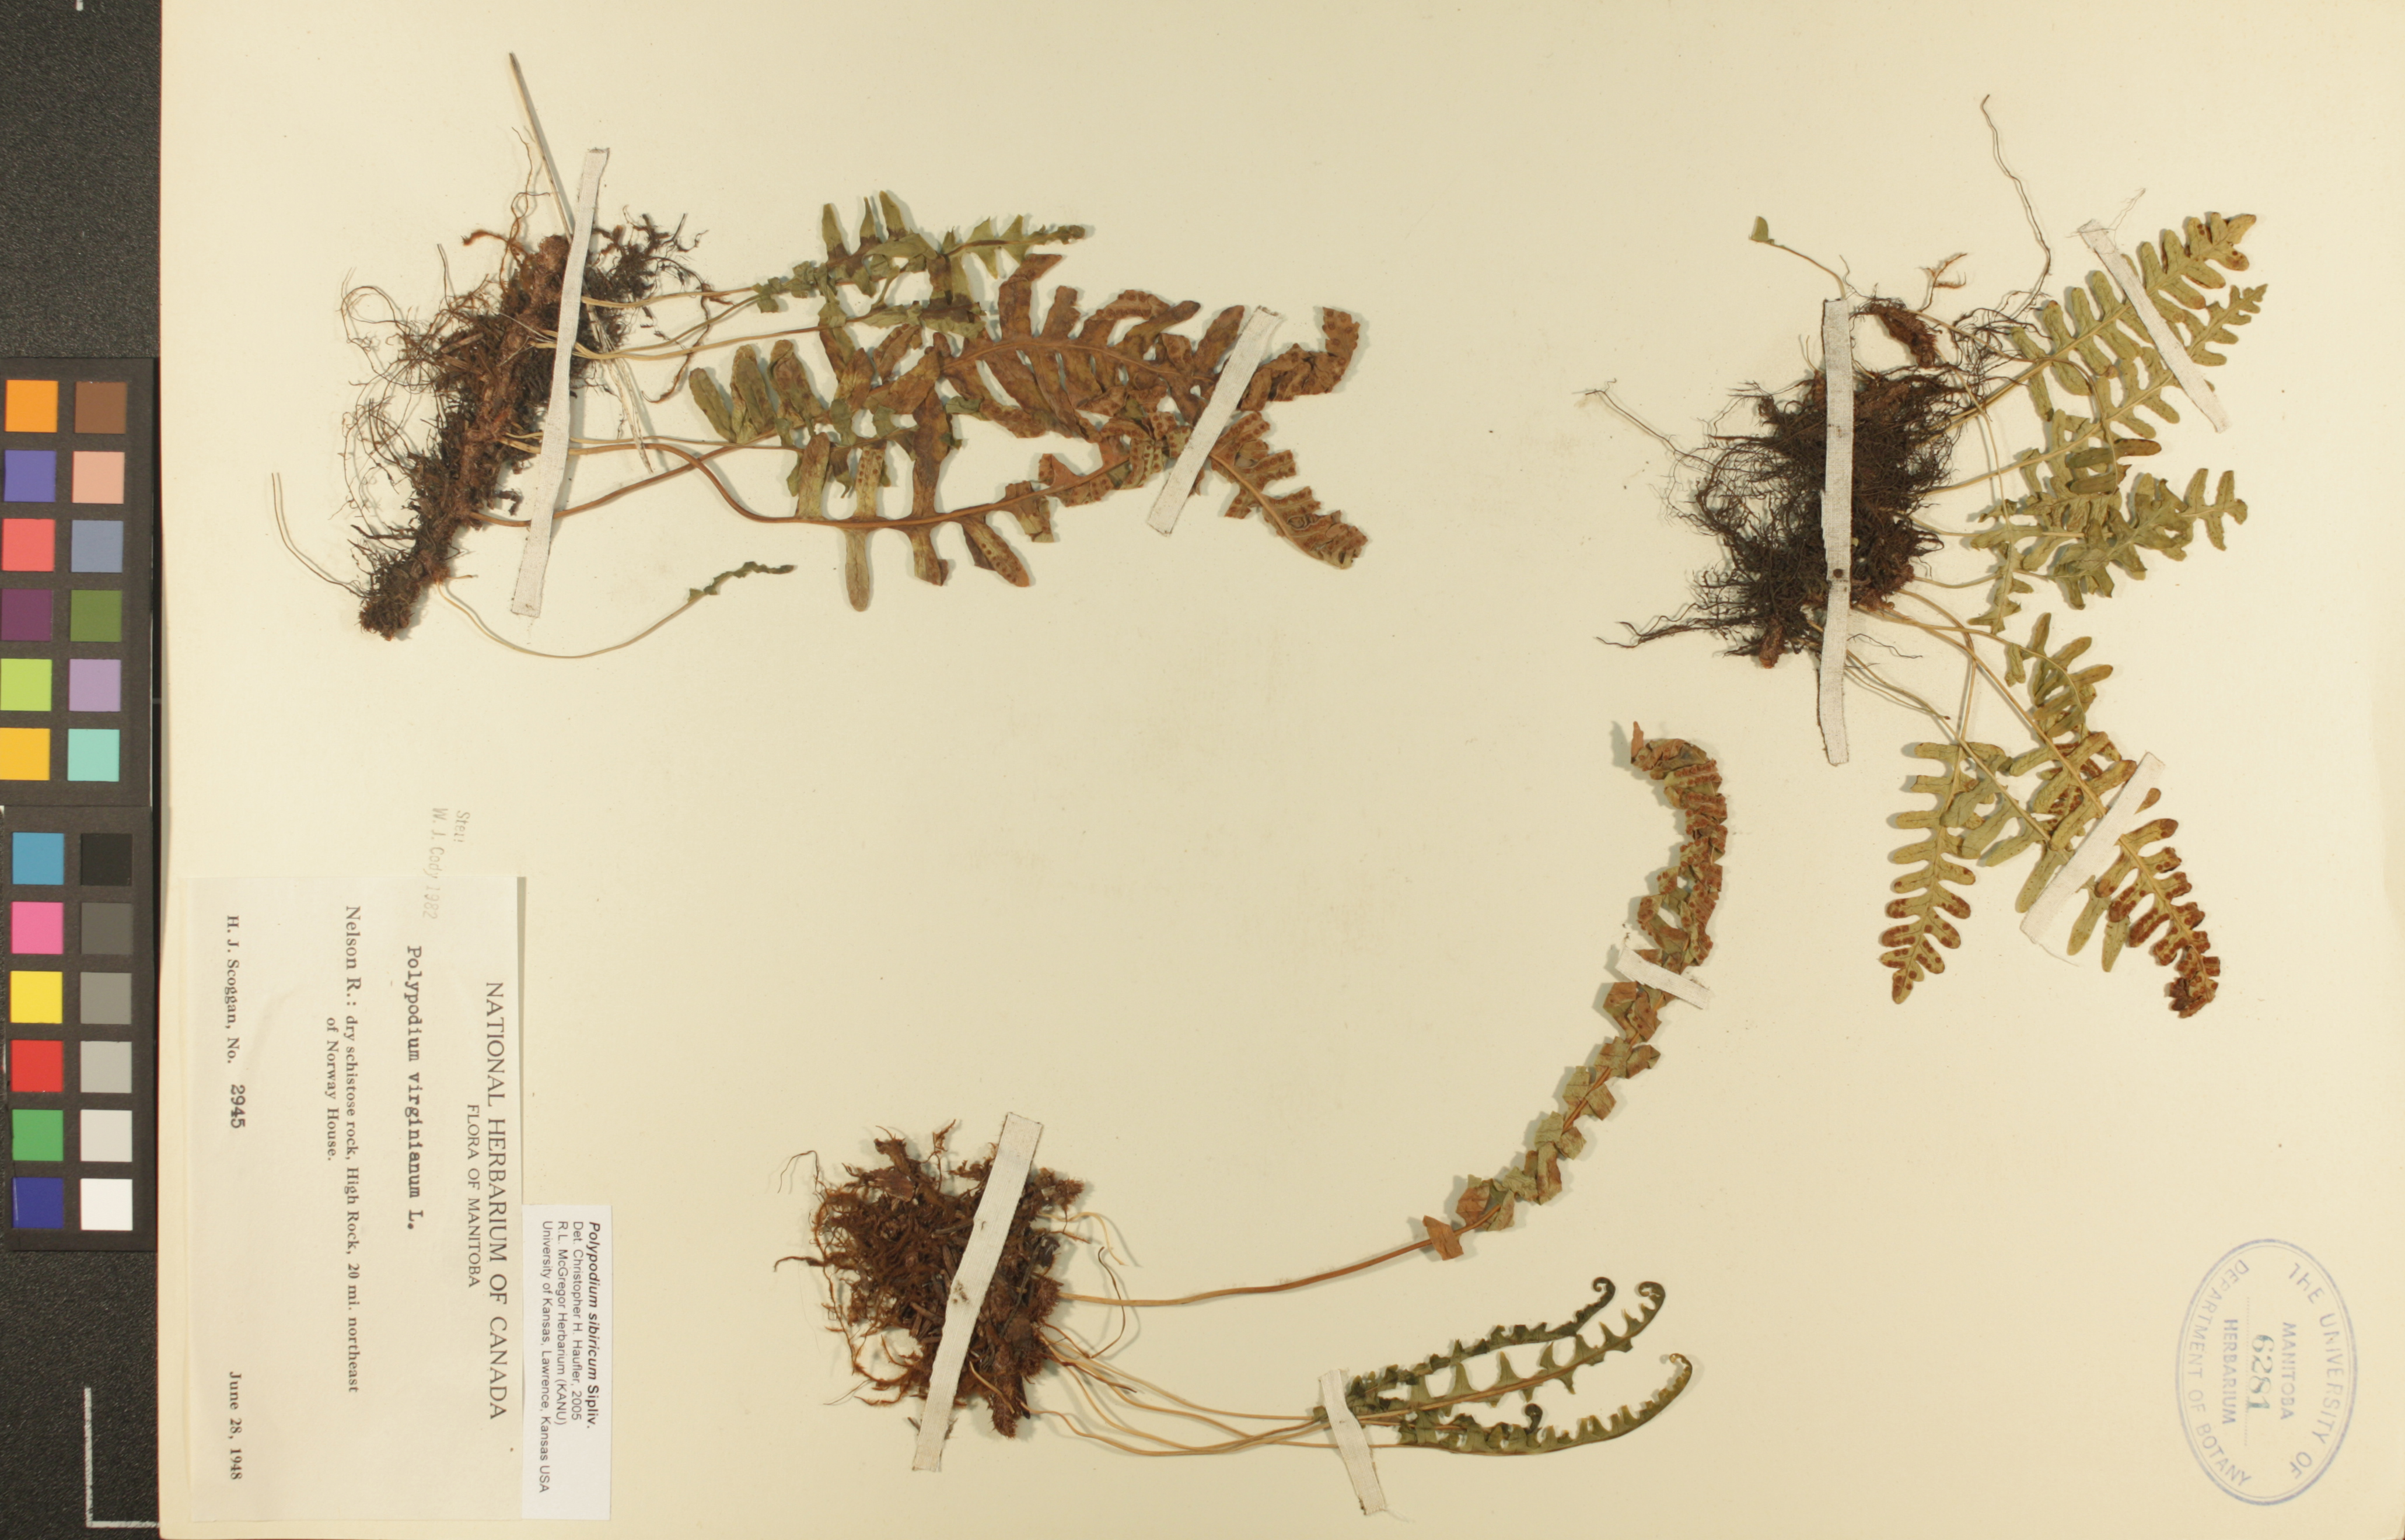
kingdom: Plantae
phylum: Tracheophyta
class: Polypodiopsida
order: Polypodiales
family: Polypodiaceae
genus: Polypodium
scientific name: Polypodium sibiricum
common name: Siberian polypody
